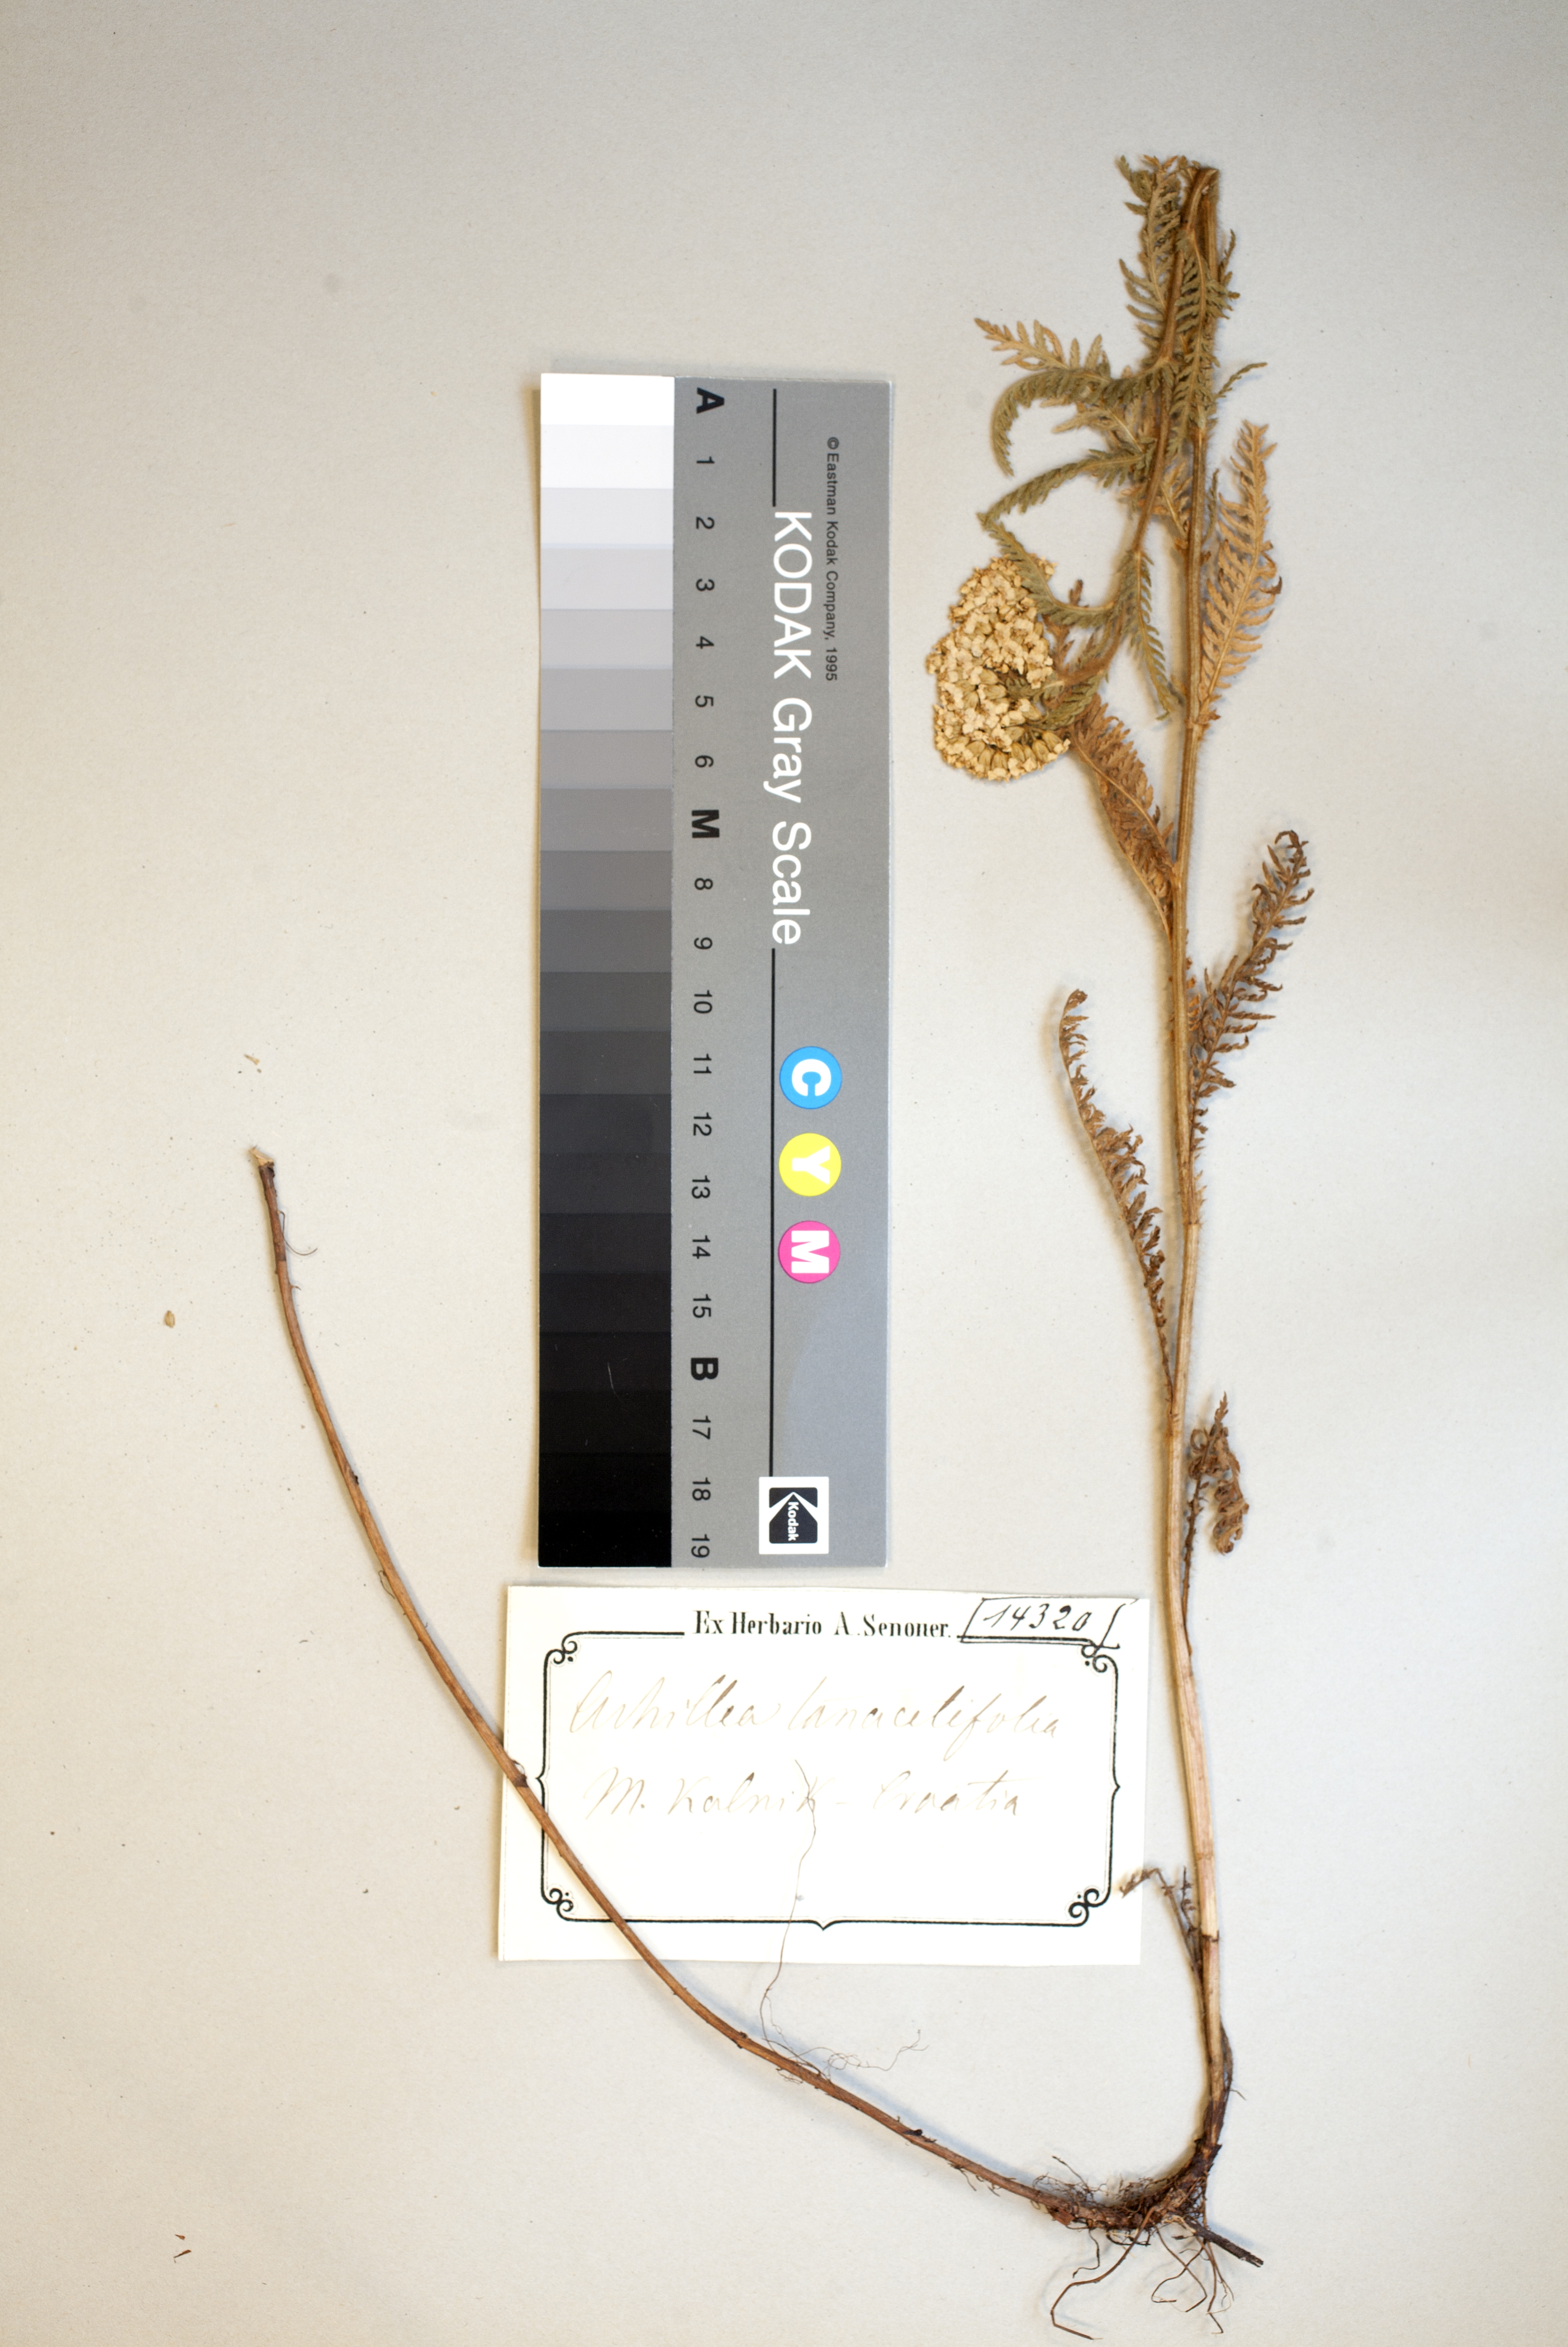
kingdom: Plantae
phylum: Tracheophyta
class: Magnoliopsida
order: Asterales
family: Asteraceae
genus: Achillea
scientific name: Achillea distans
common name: Tall yarrow
